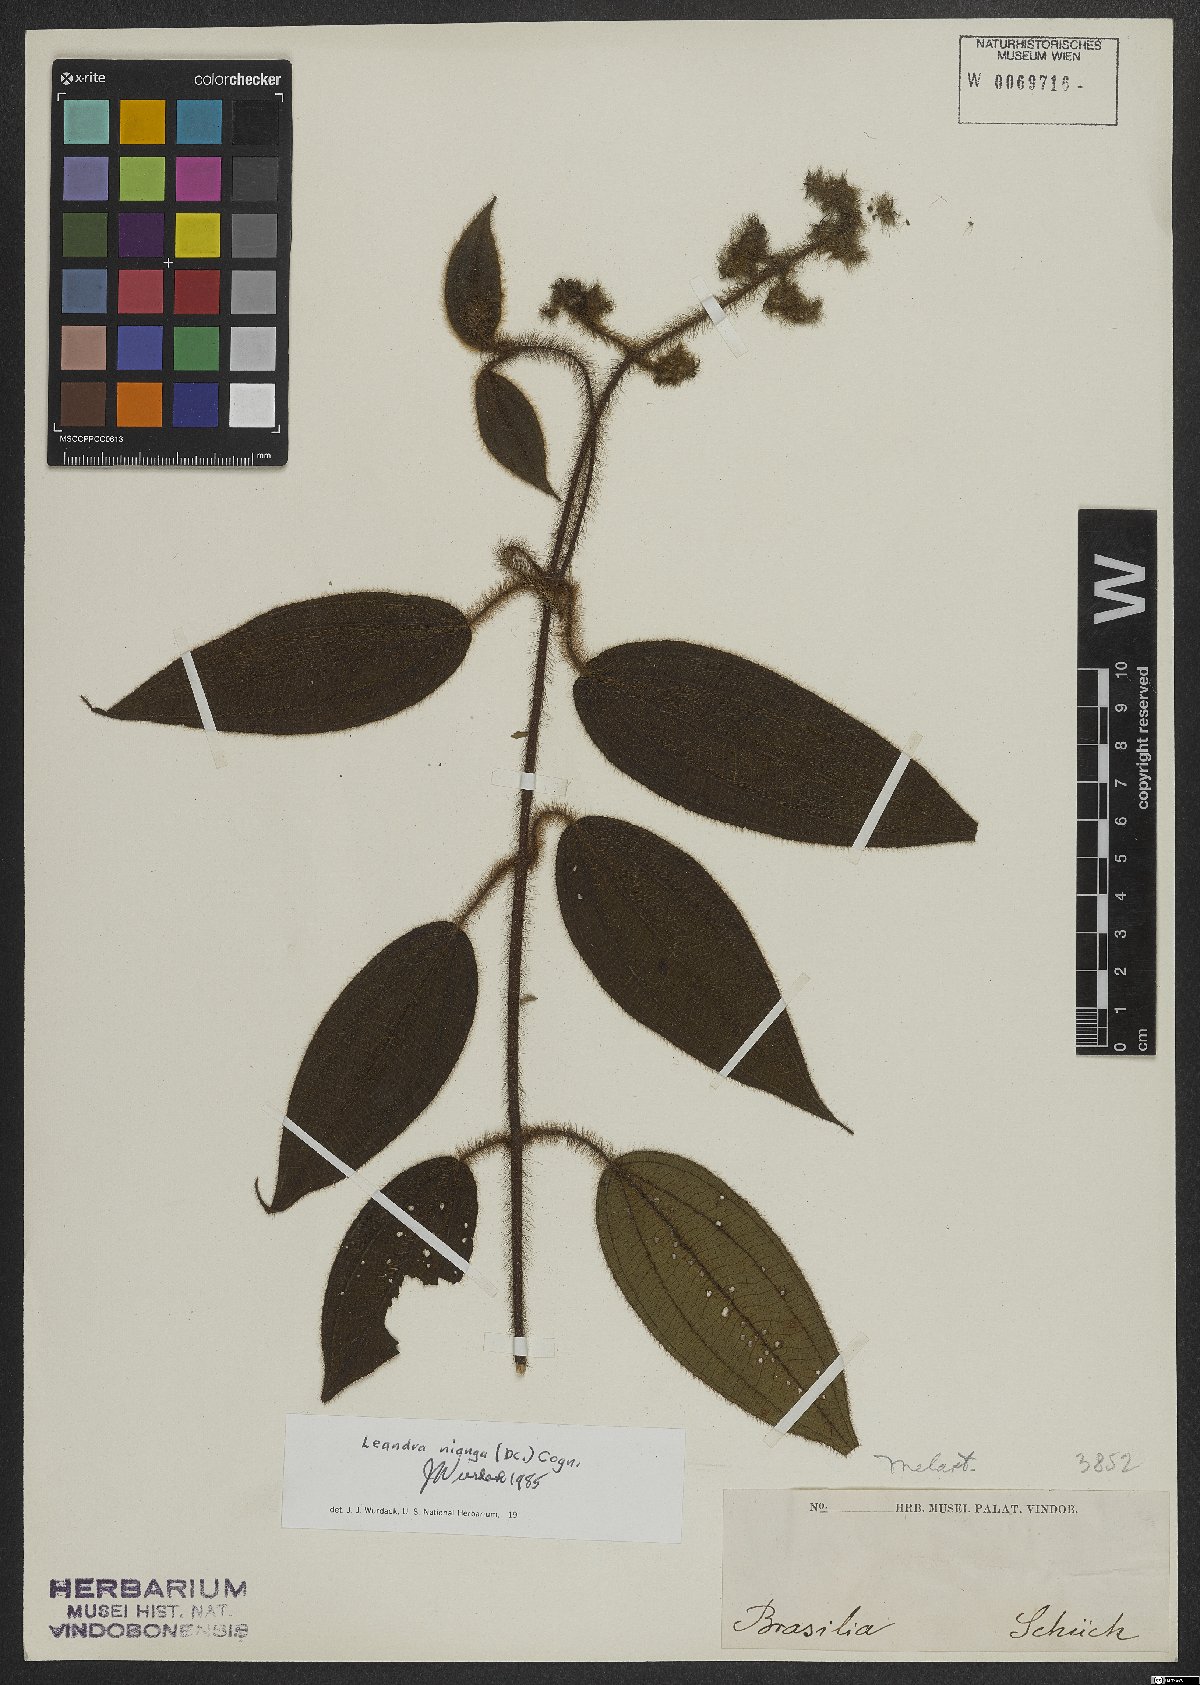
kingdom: Plantae
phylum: Tracheophyta
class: Magnoliopsida
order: Myrtales
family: Melastomataceae
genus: Miconia
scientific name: Miconia nianga
